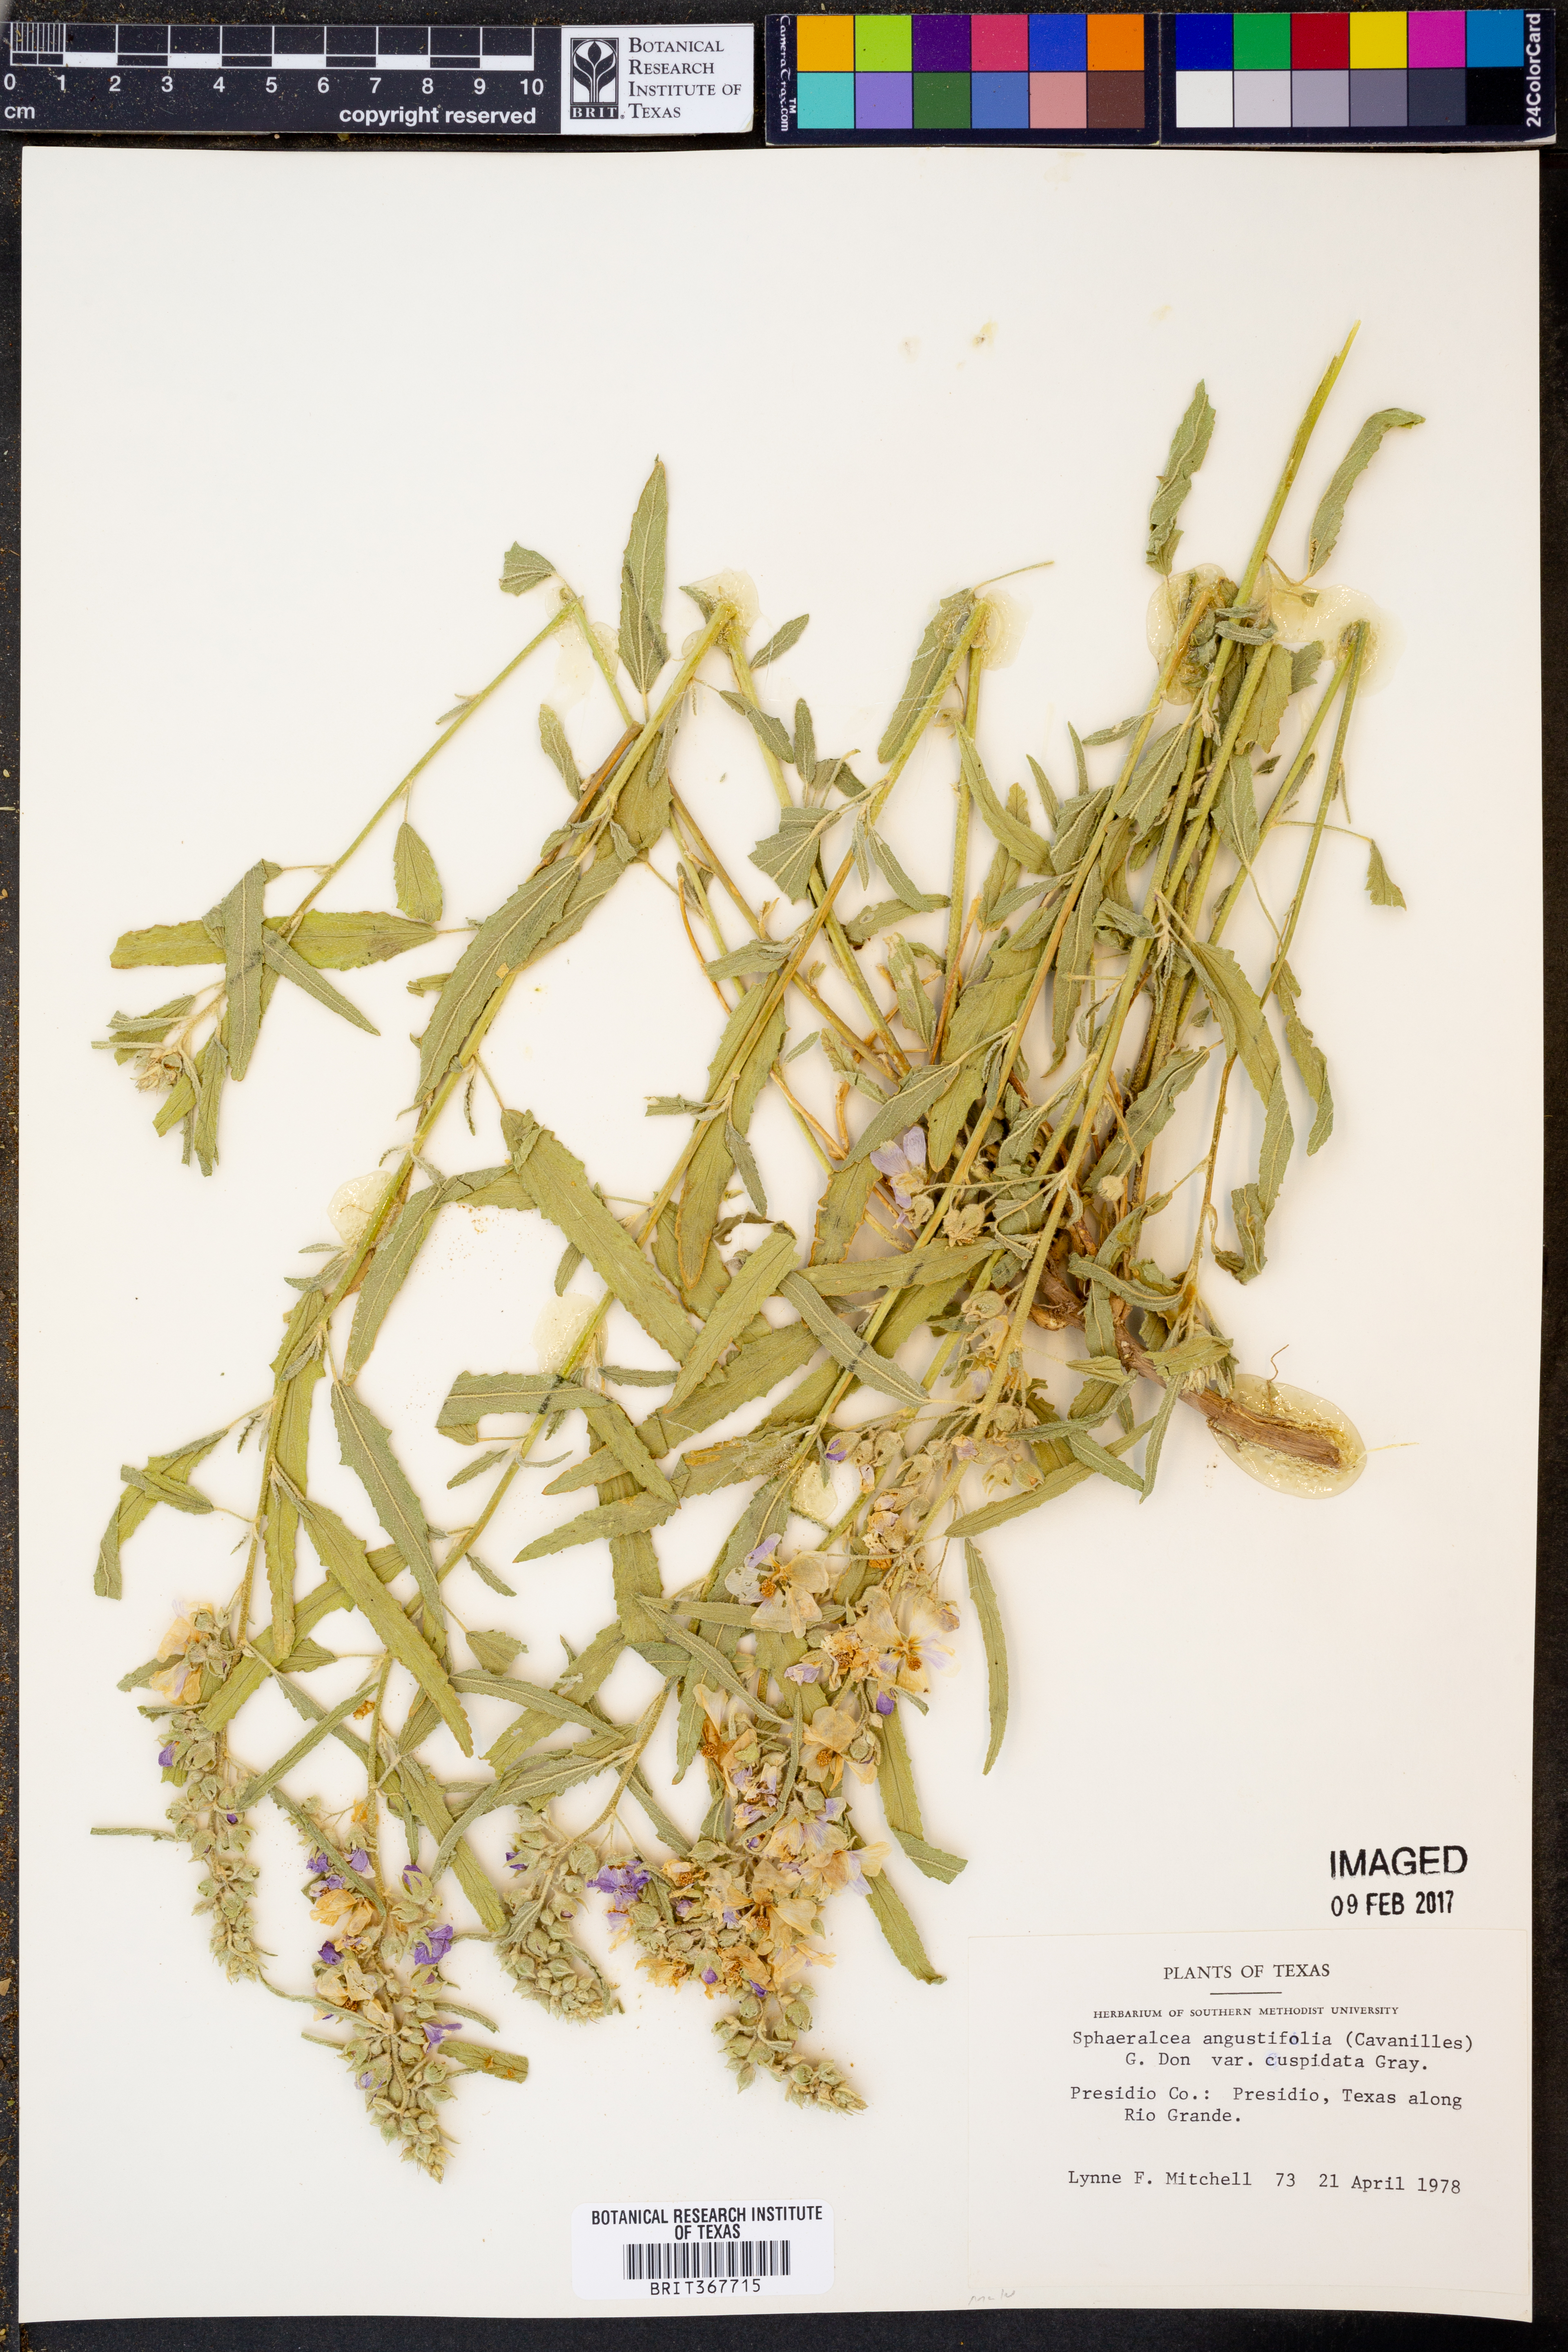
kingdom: Plantae
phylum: Tracheophyta
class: Magnoliopsida
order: Malvales
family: Malvaceae
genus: Sphaeralcea
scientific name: Sphaeralcea angustifolia
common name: Copper globe-mallow
